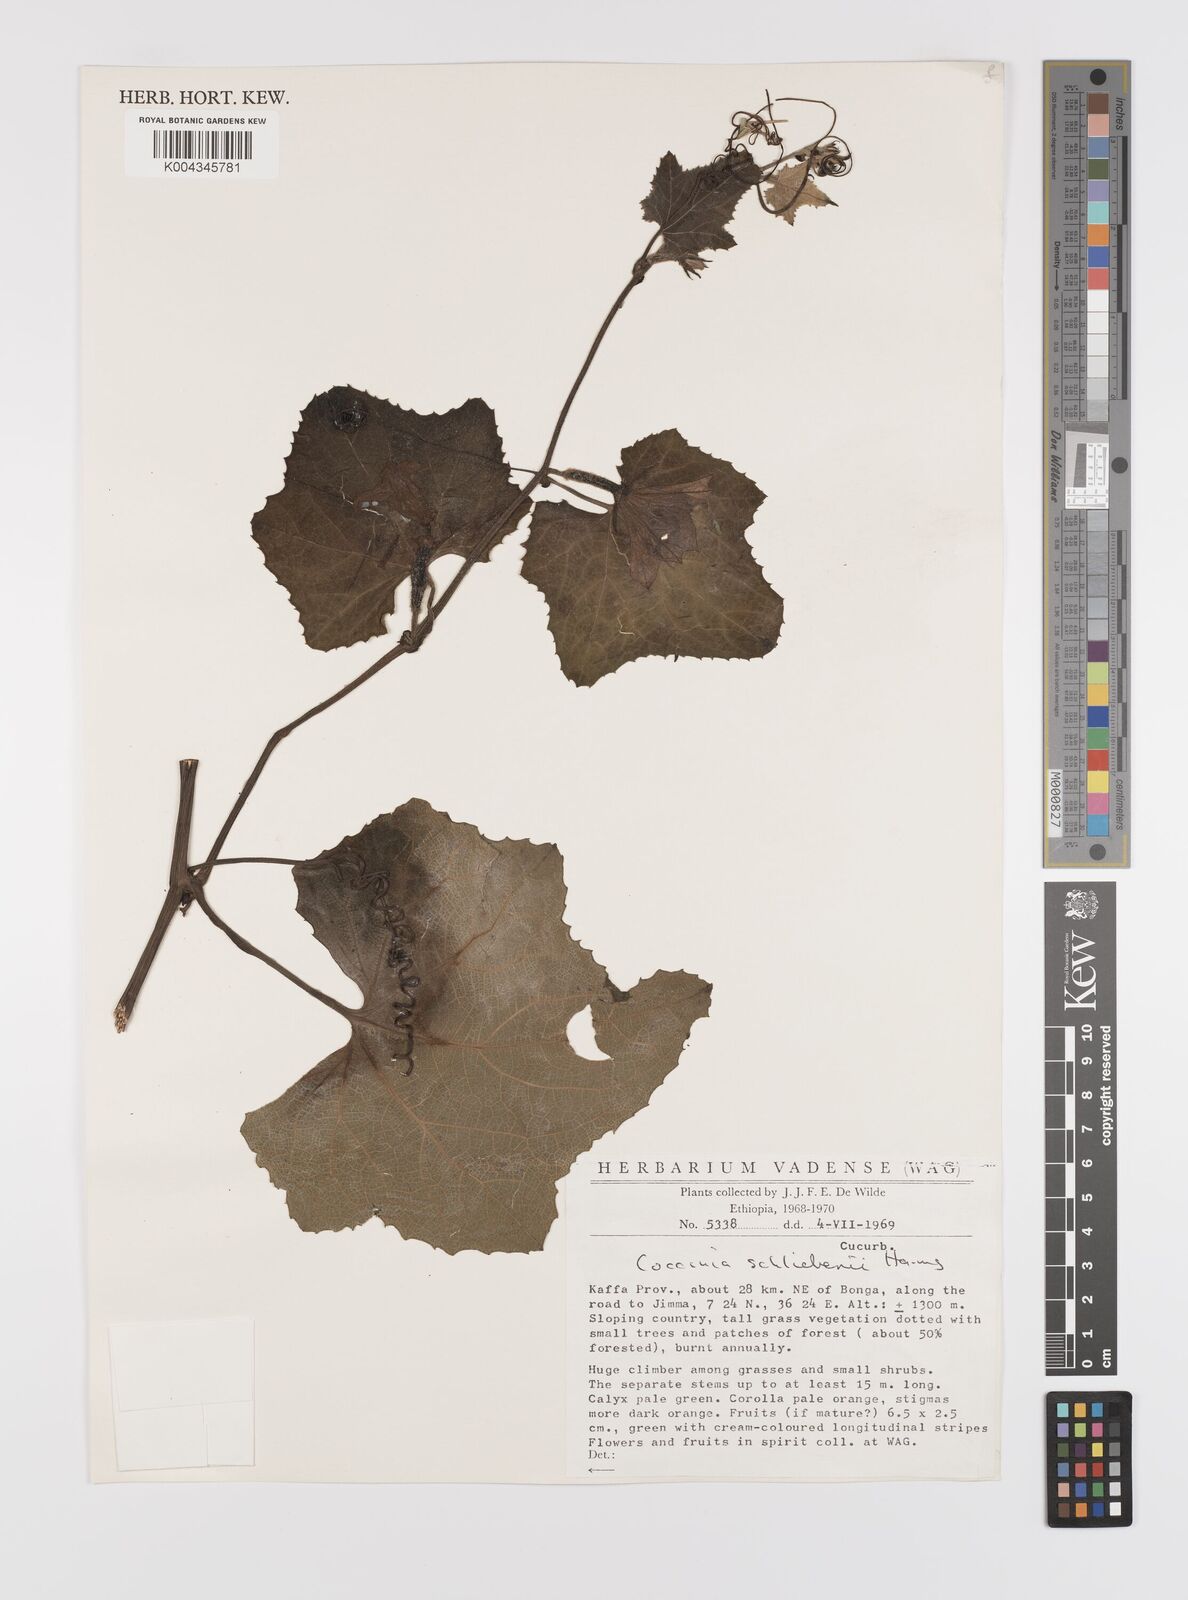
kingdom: Plantae
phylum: Tracheophyta
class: Magnoliopsida
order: Cucurbitales
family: Cucurbitaceae
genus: Coccinia
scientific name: Coccinia schliebenii
